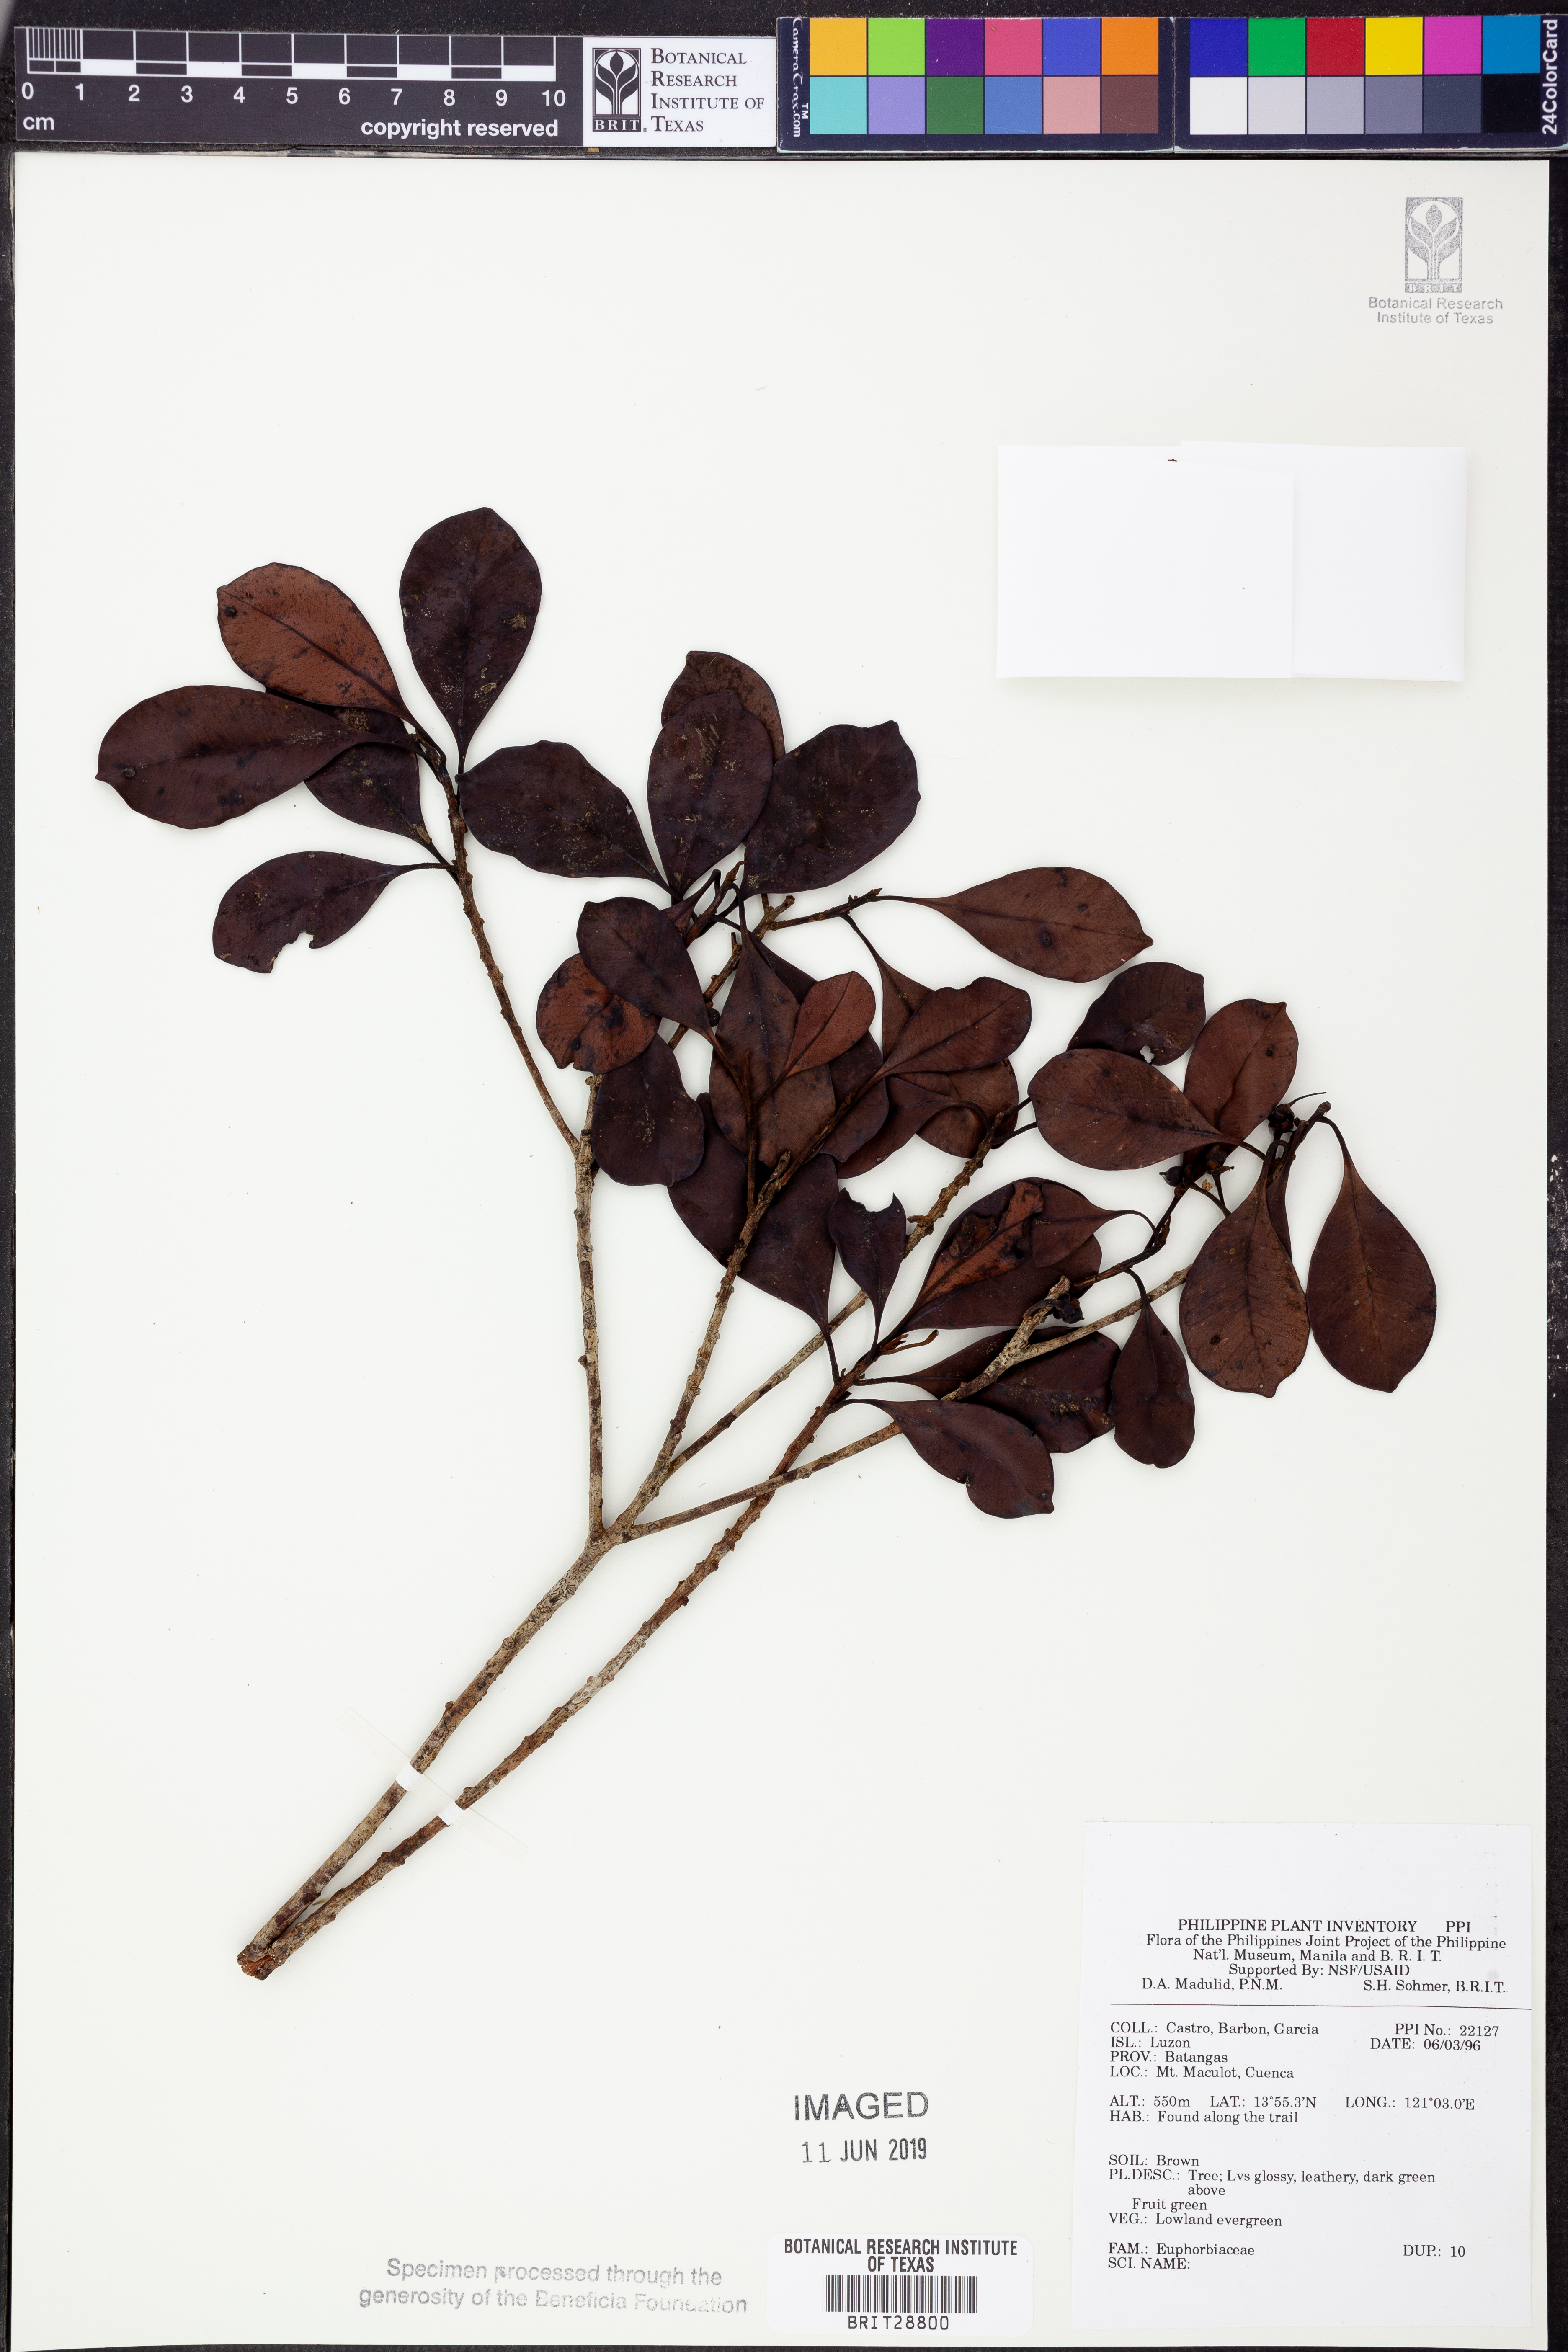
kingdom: Plantae
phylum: Tracheophyta
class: Magnoliopsida
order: Malpighiales
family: Euphorbiaceae
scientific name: Euphorbiaceae
